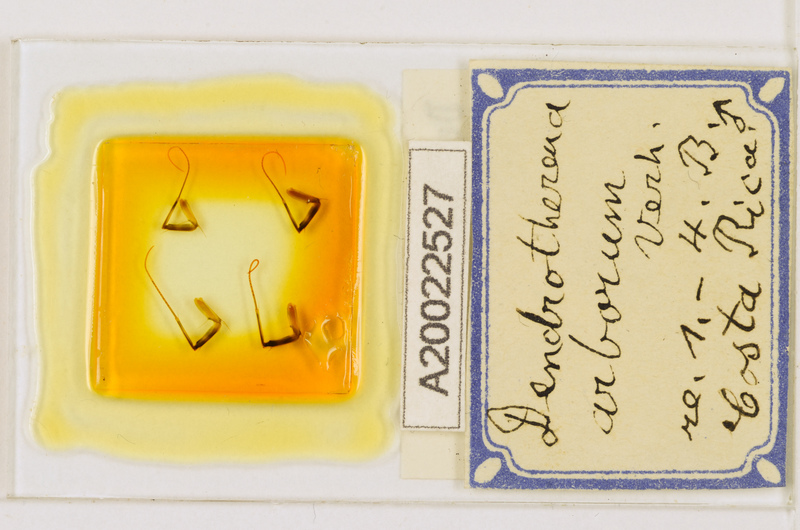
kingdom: Animalia
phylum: Arthropoda
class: Chilopoda
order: Scutigeromorpha
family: Scutigeridae
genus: Scutigera
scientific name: Scutigera linceci
